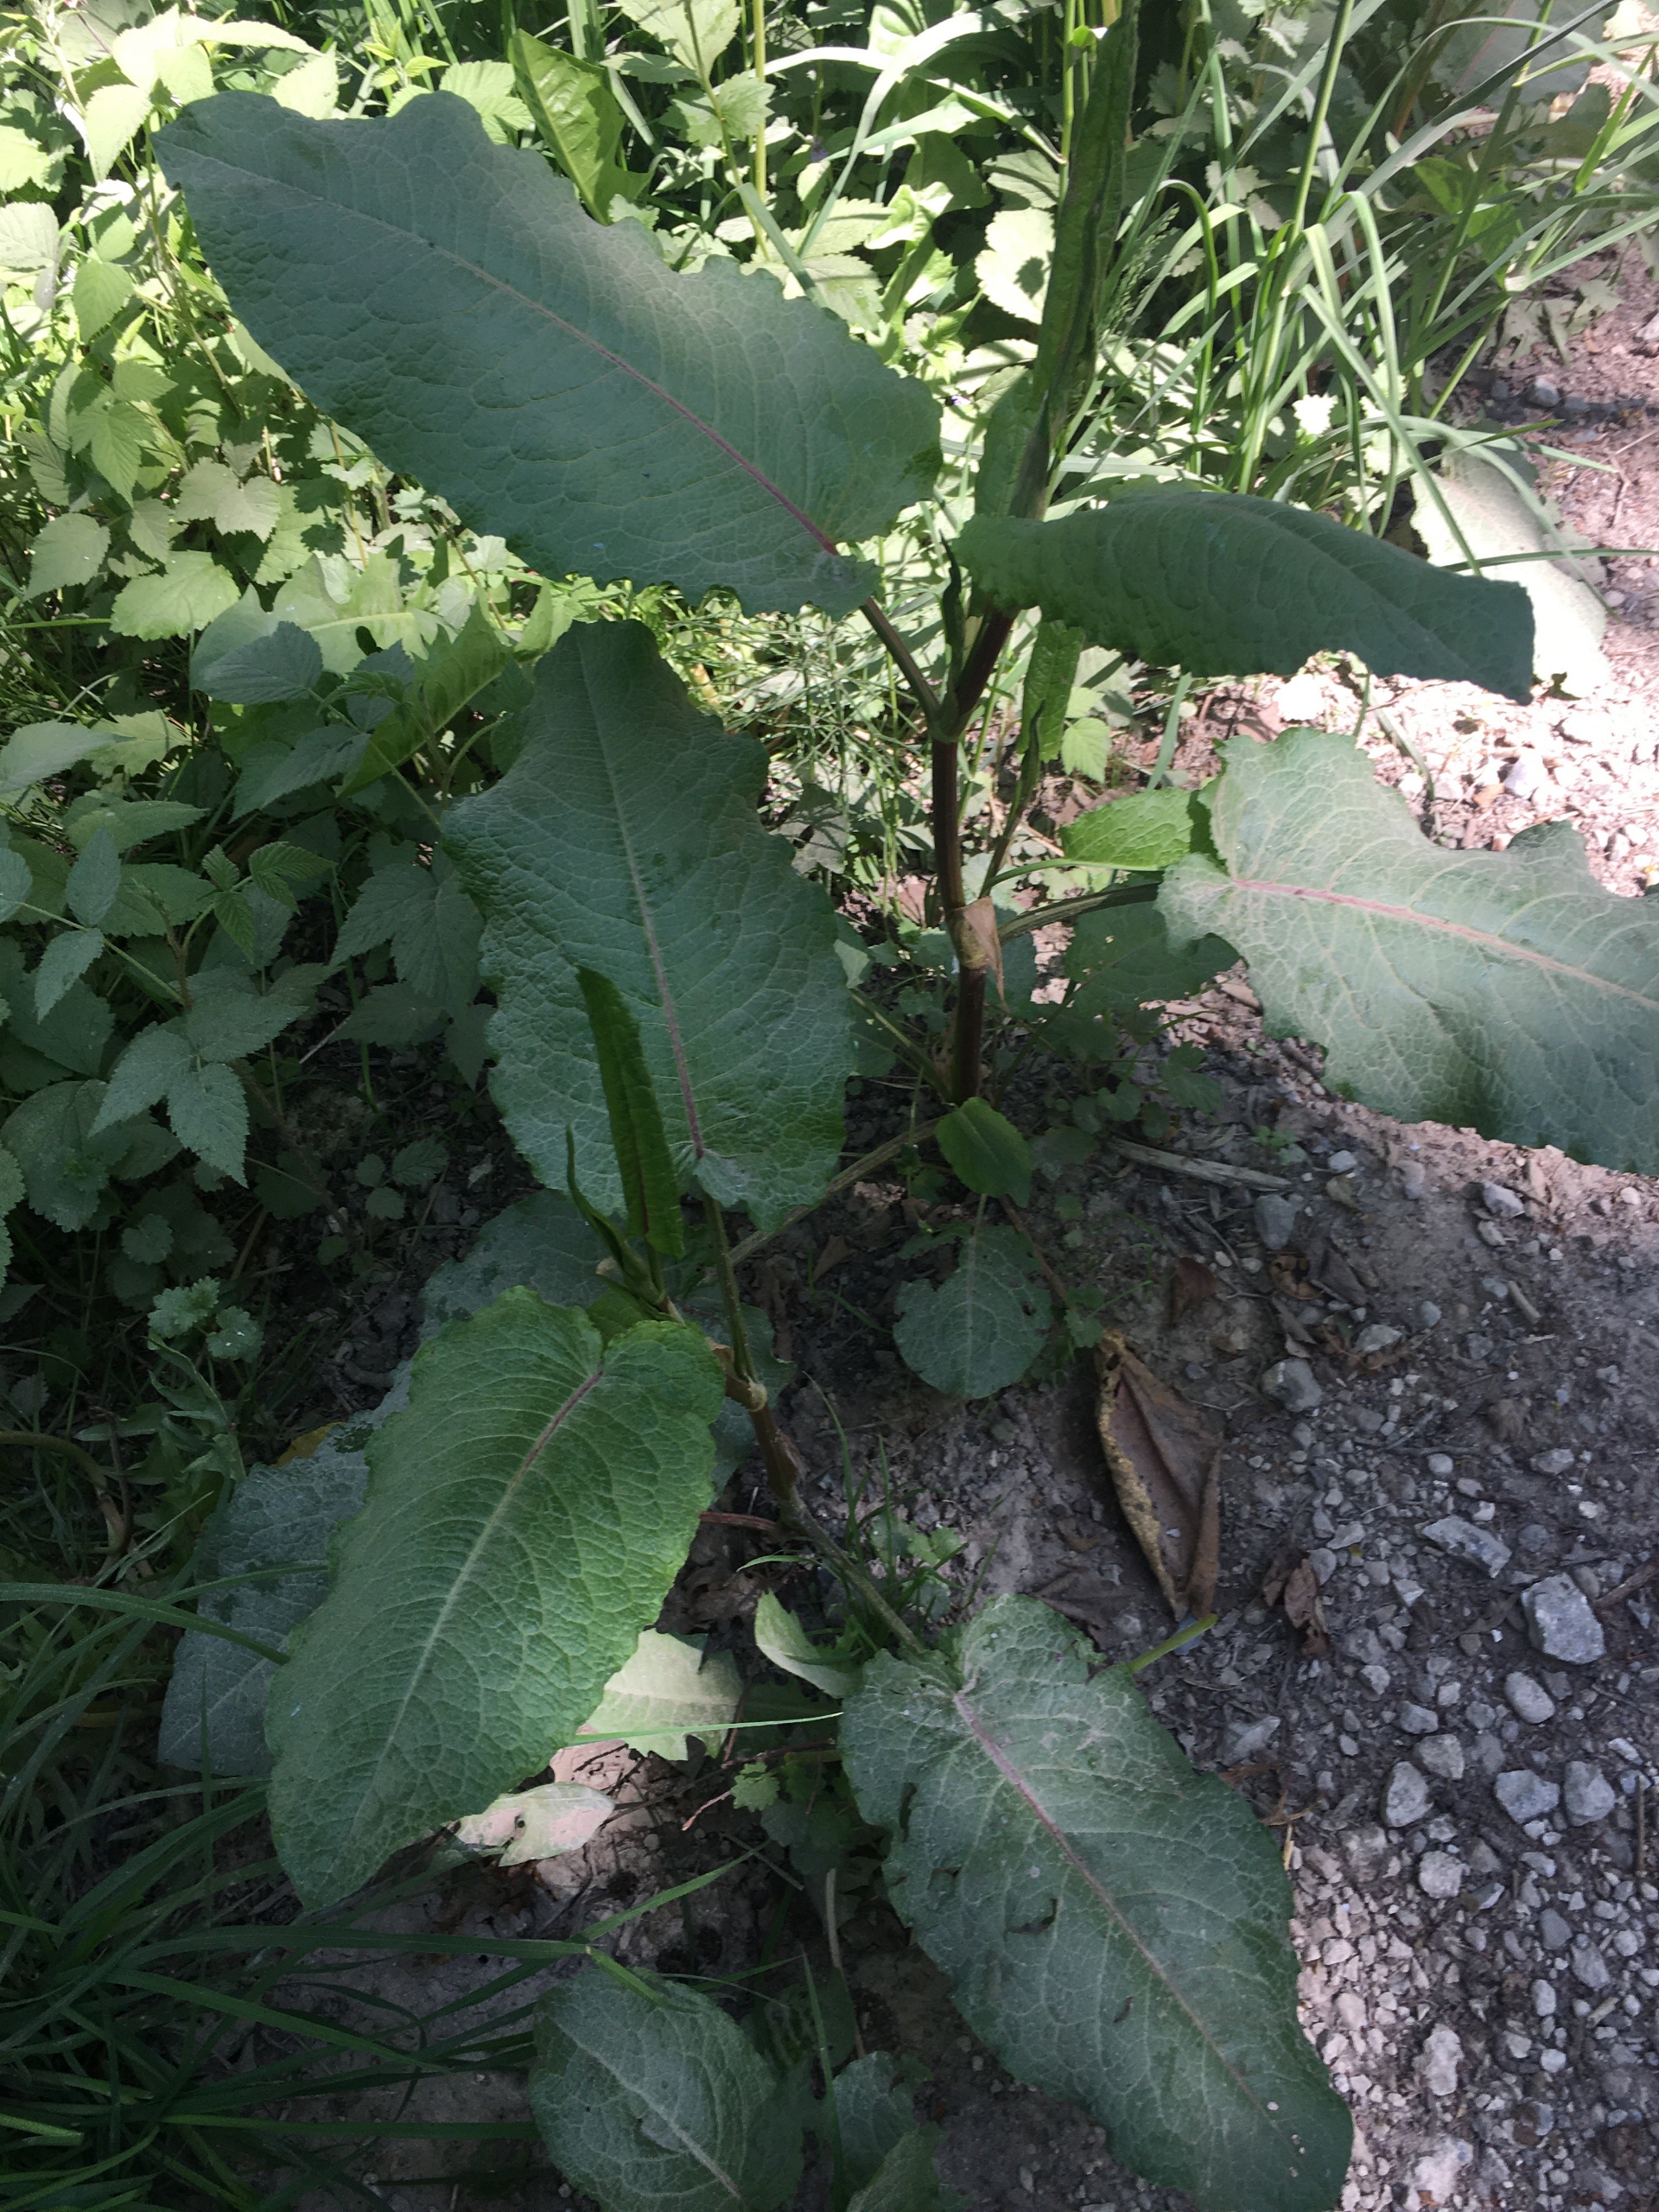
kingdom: Plantae
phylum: Tracheophyta
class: Magnoliopsida
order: Caryophyllales
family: Polygonaceae
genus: Rumex
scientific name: Rumex obtusifolius
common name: Butbladet skræppe
